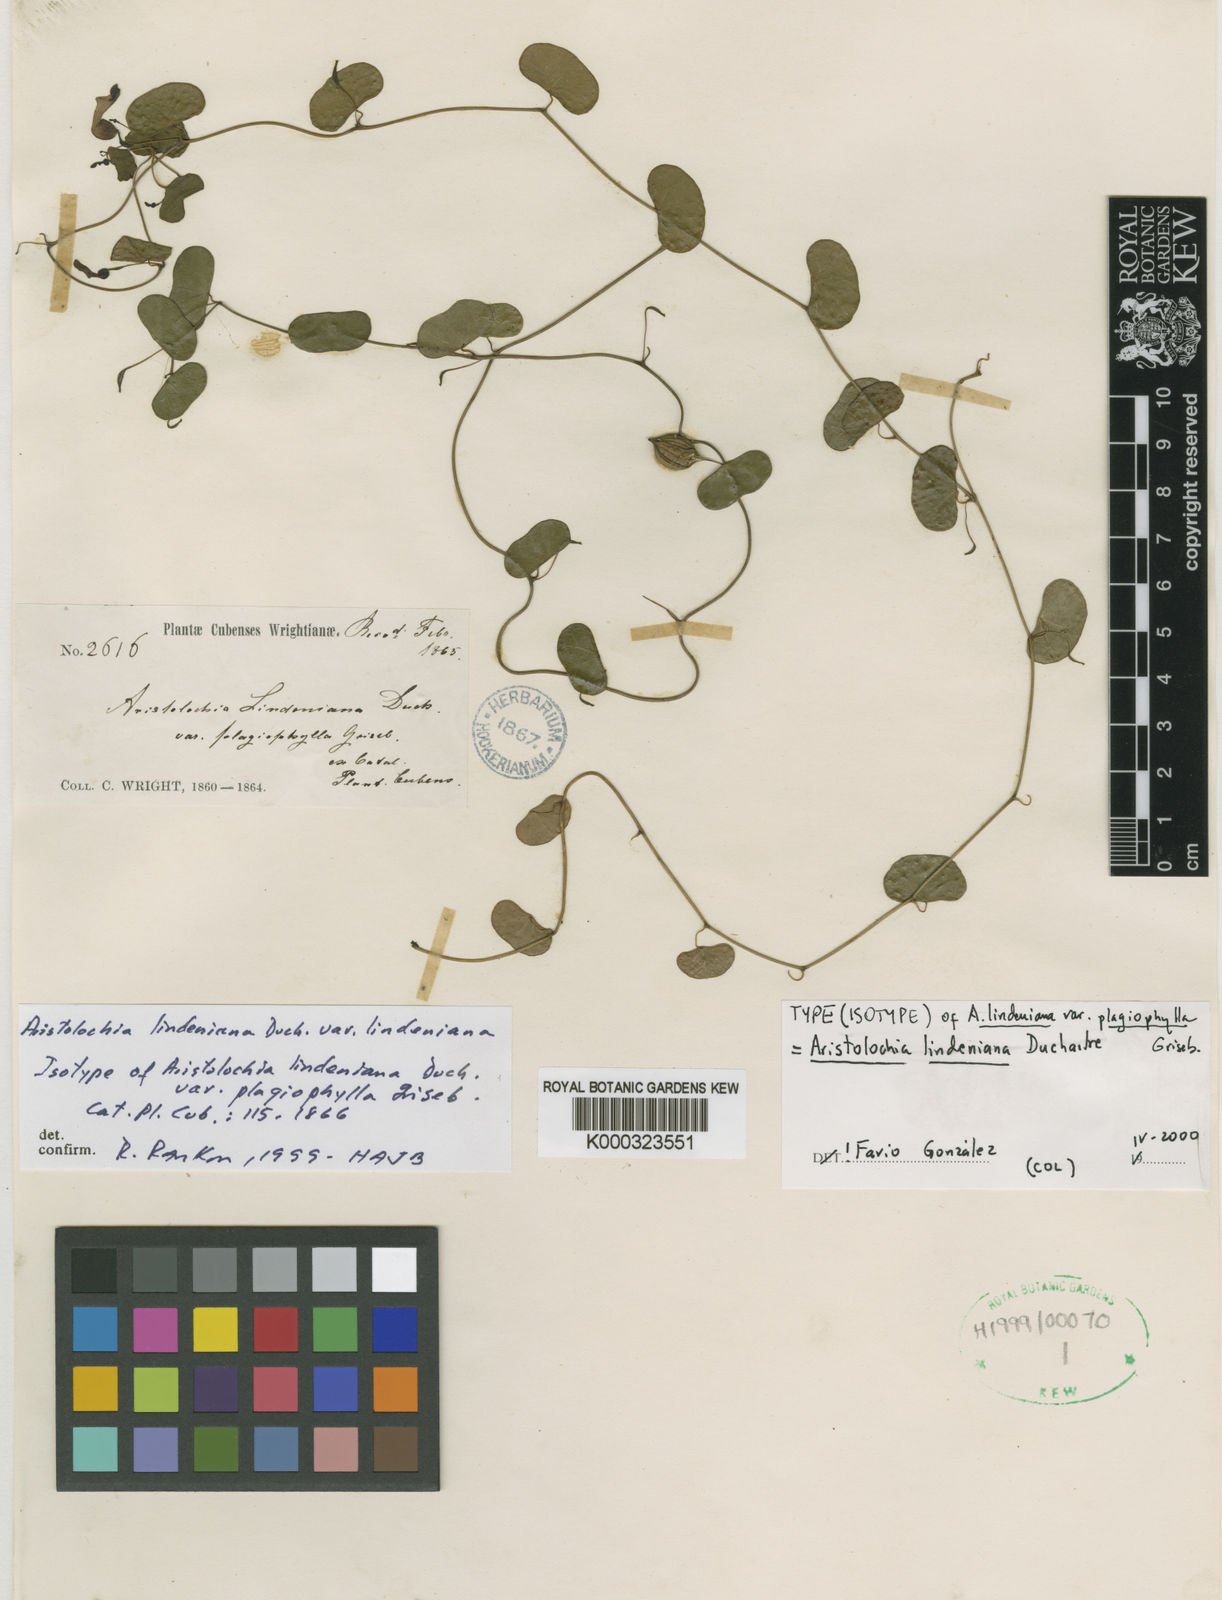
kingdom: Plantae
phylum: Tracheophyta
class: Magnoliopsida
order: Piperales
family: Aristolochiaceae
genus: Aristolochia
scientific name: Aristolochia lindeniana
